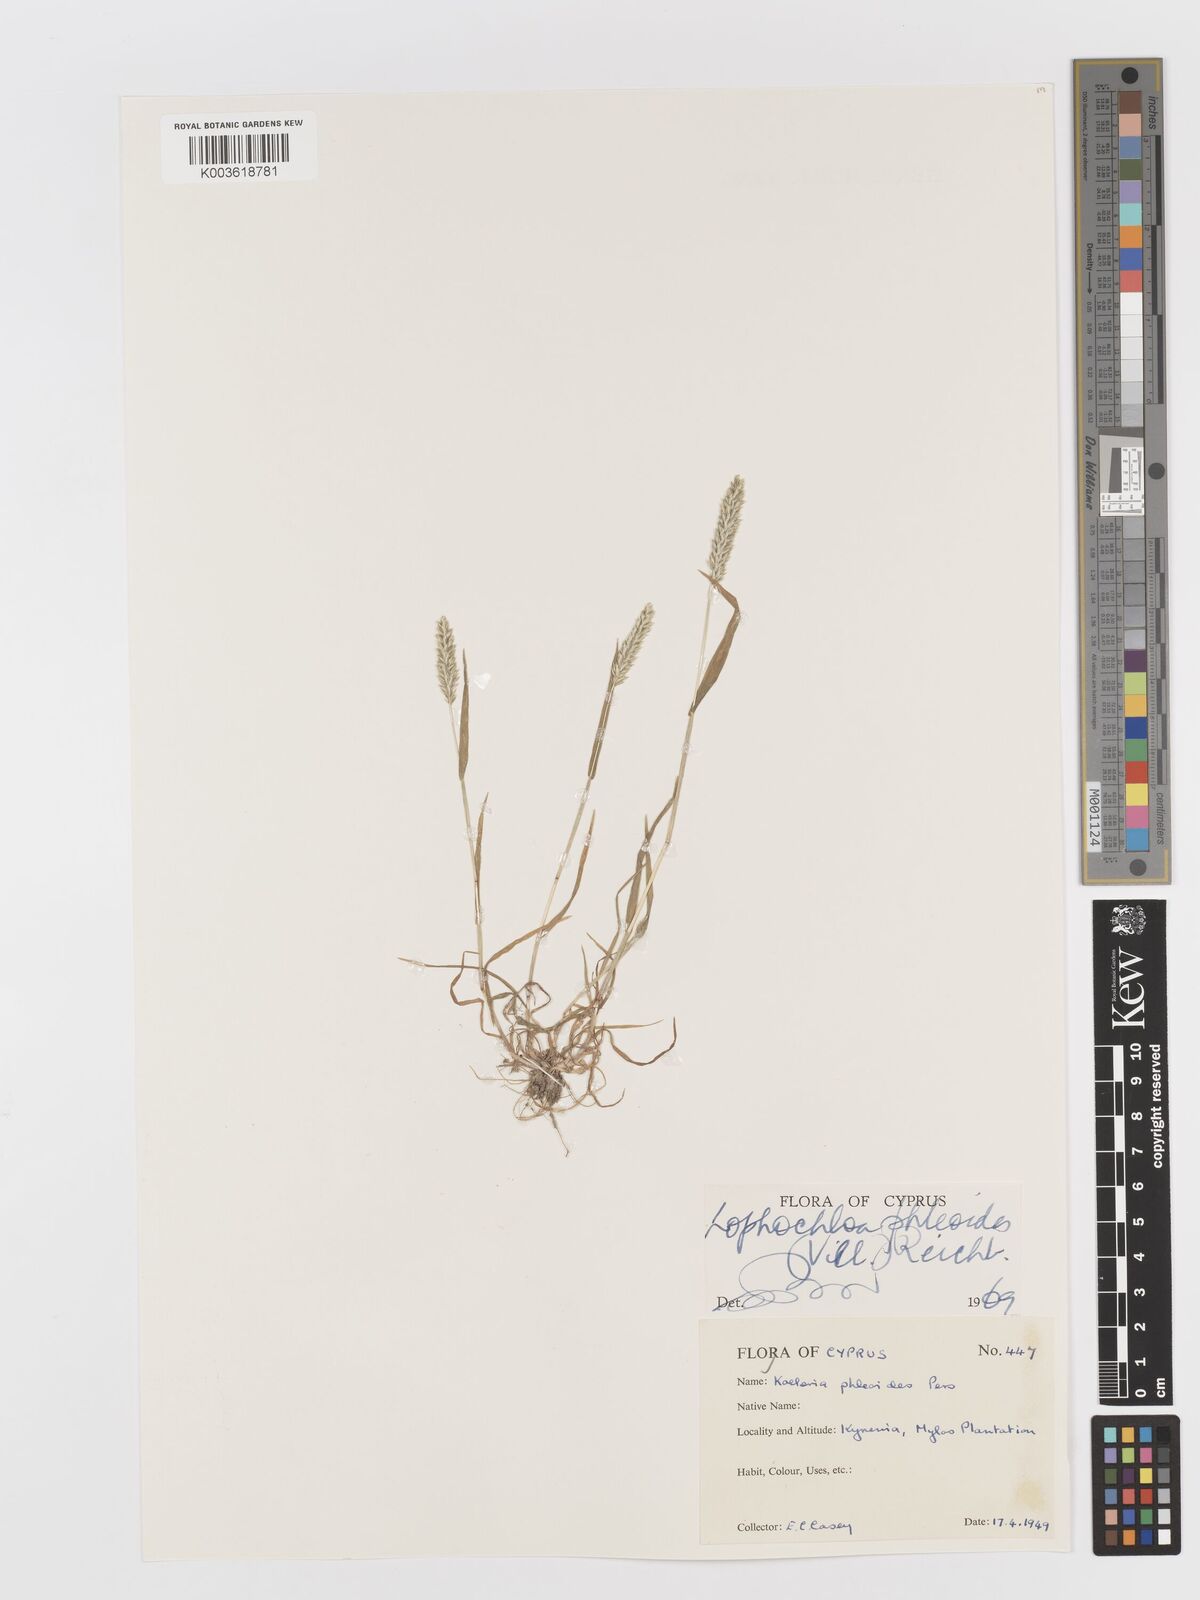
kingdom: Plantae
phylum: Tracheophyta
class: Liliopsida
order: Poales
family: Poaceae
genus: Rostraria
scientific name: Rostraria cristata
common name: Mediterranean hair-grass
